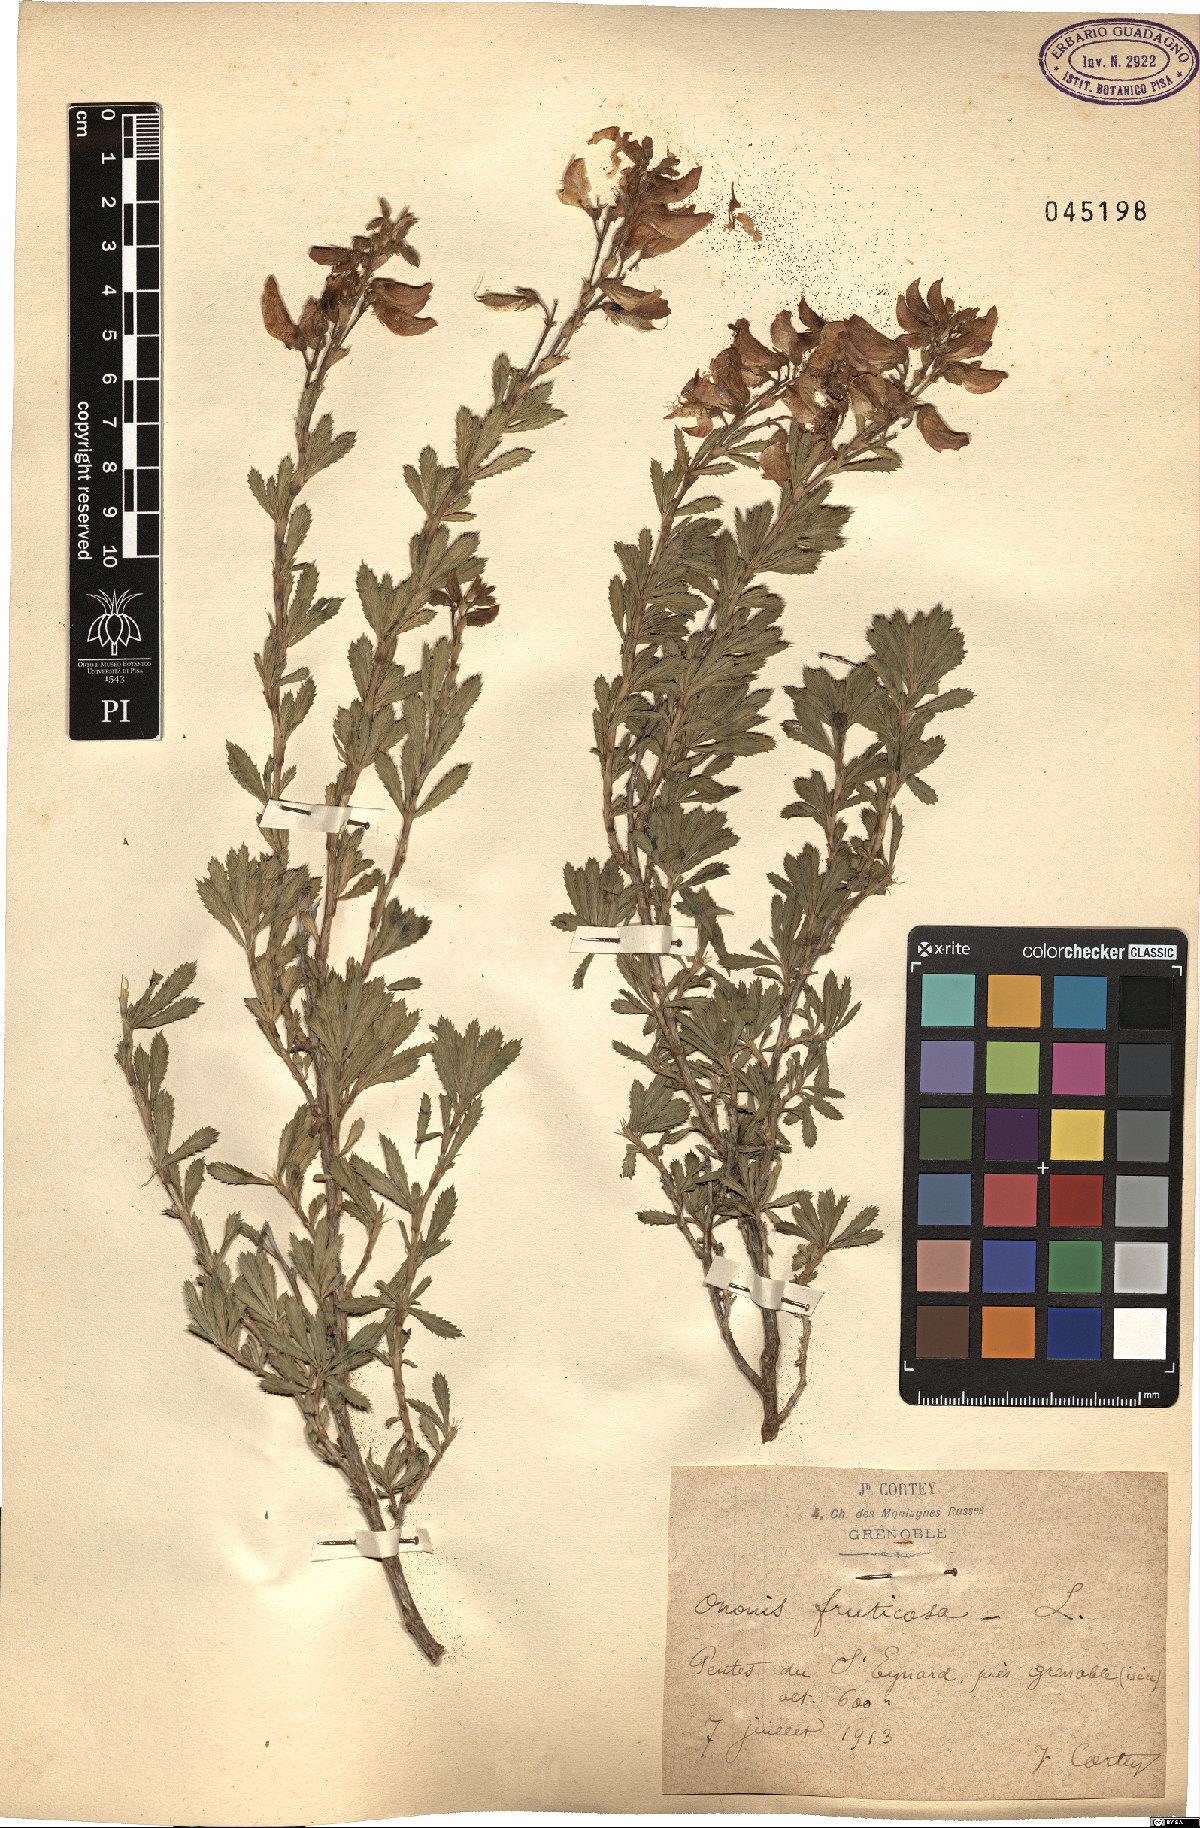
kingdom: Plantae
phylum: Tracheophyta
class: Magnoliopsida
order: Fabales
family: Fabaceae
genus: Ononis
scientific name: Ononis fruticosa
